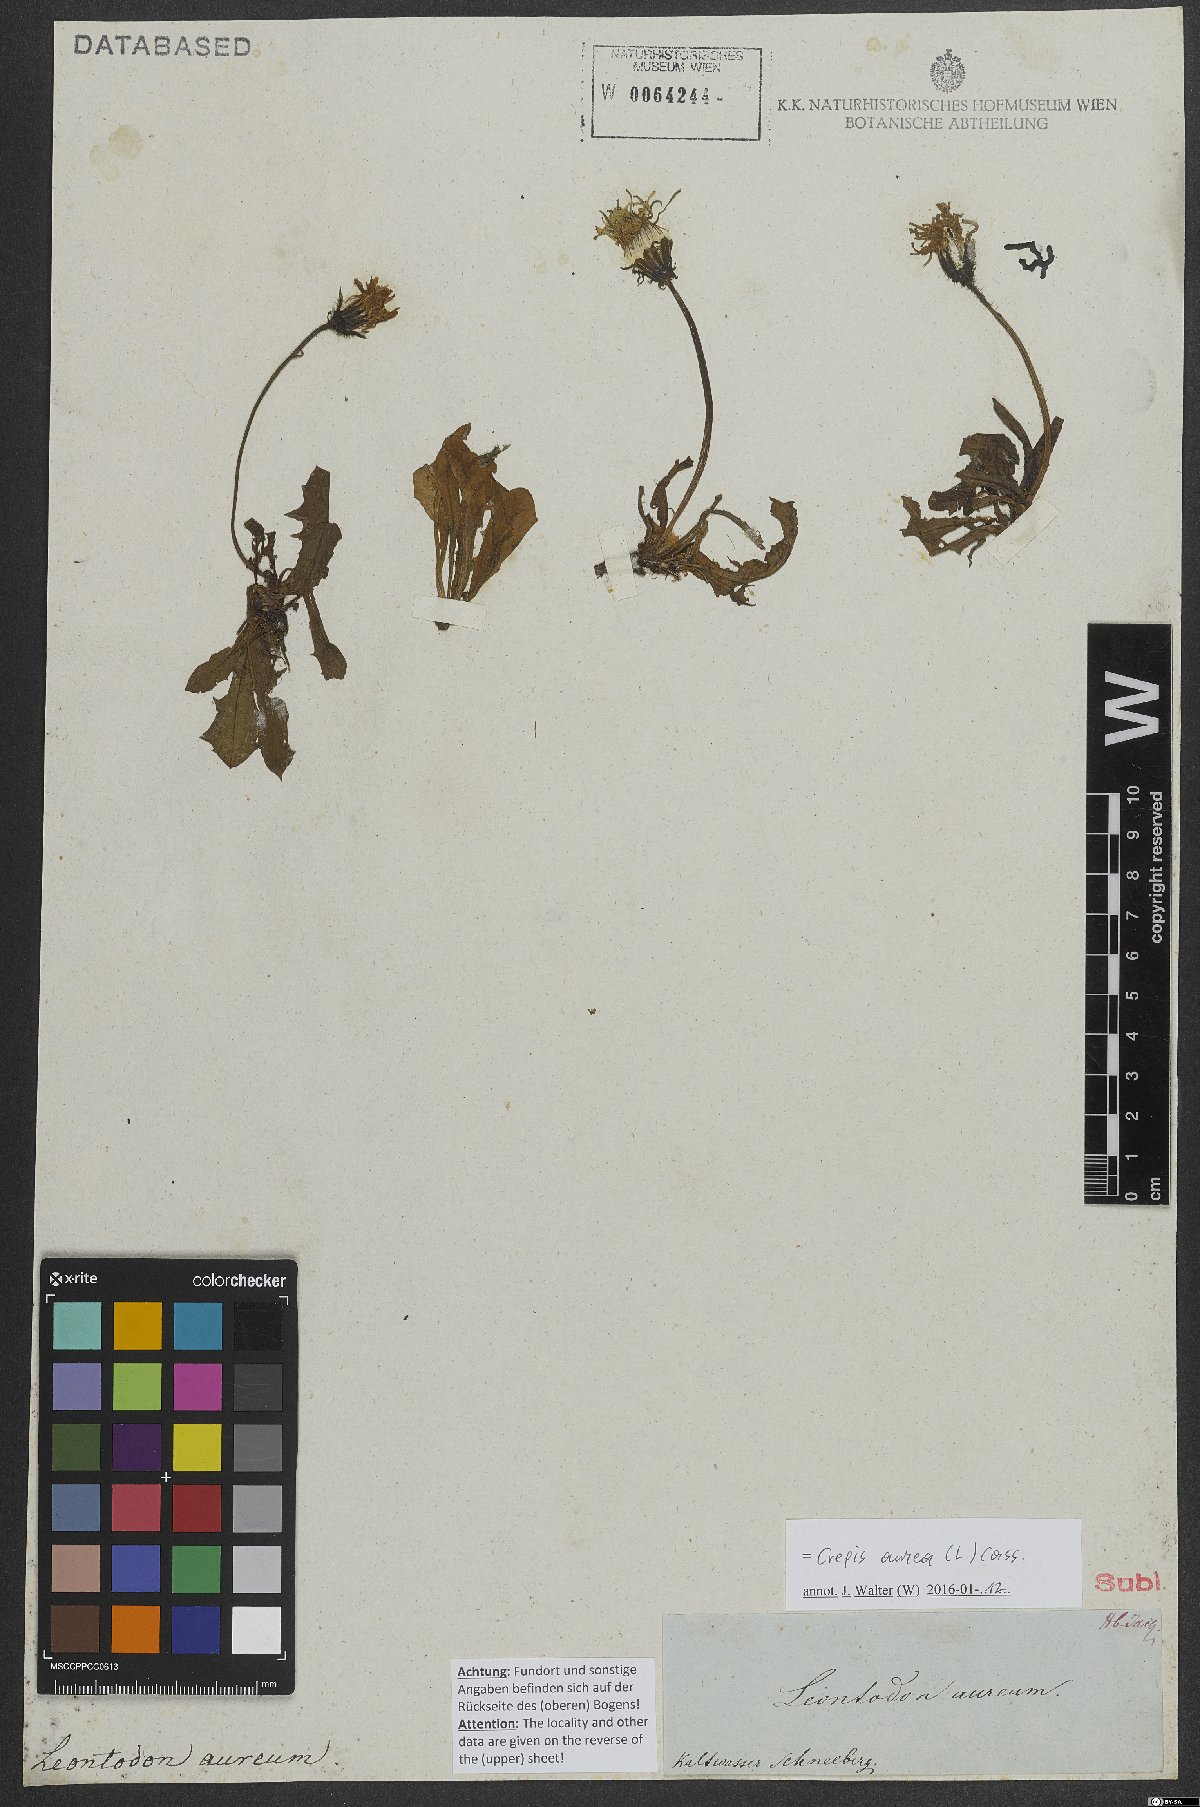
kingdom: Plantae
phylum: Tracheophyta
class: Magnoliopsida
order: Asterales
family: Asteraceae
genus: Crepis
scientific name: Crepis aurea
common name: Golden hawk's-beard
